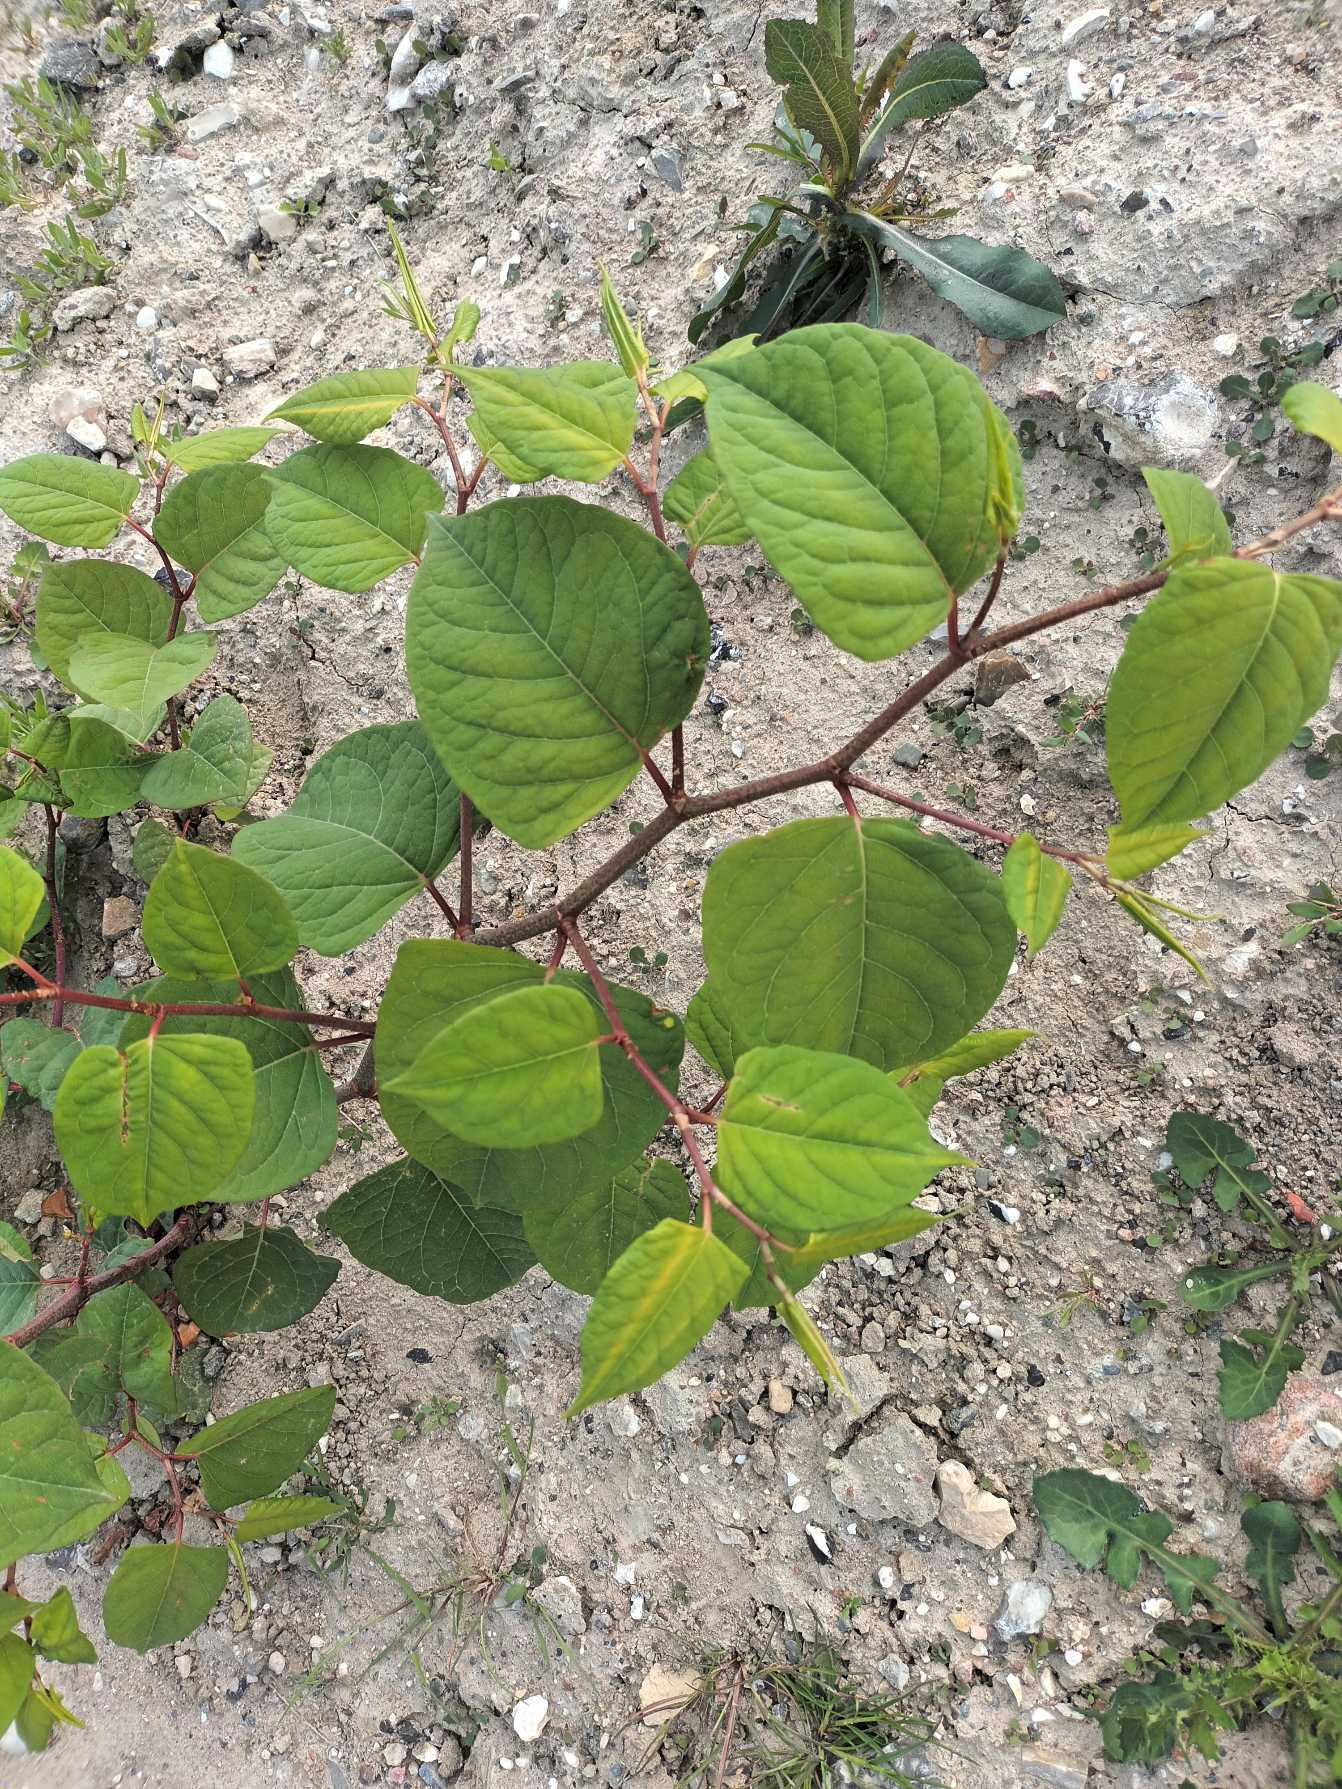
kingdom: Plantae
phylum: Tracheophyta
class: Magnoliopsida
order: Caryophyllales
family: Polygonaceae
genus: Reynoutria
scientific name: Reynoutria japonica
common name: Japan-pileurt
